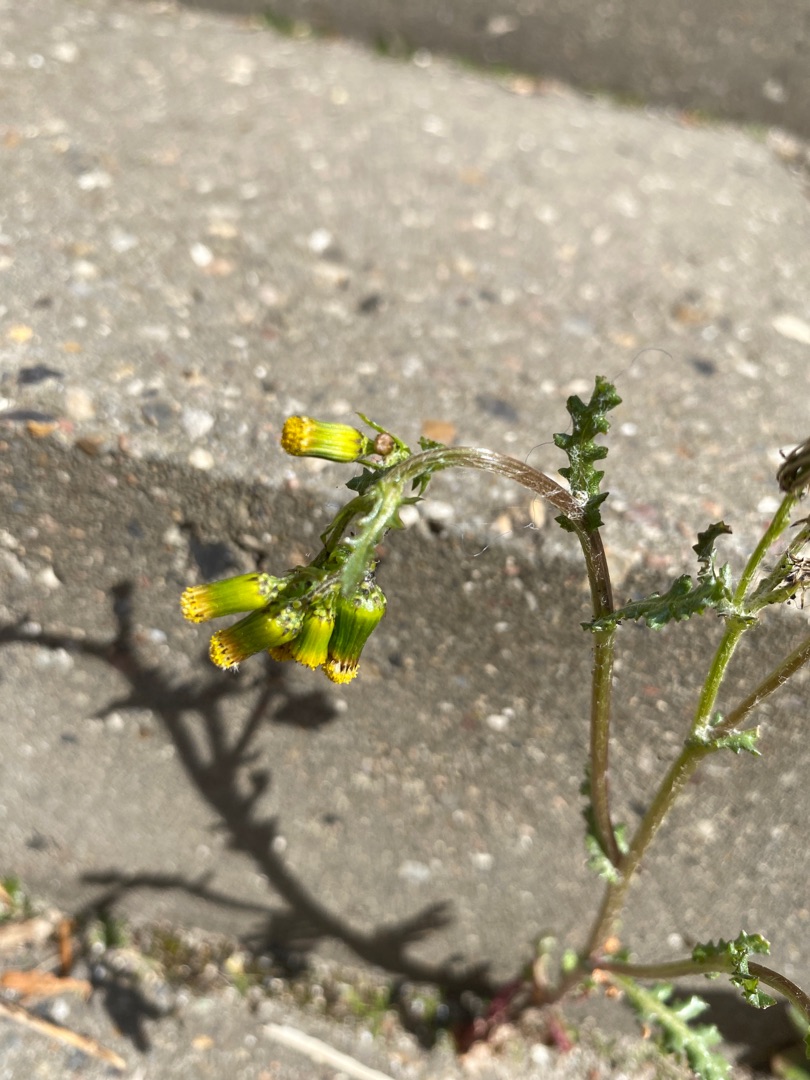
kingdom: Plantae
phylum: Tracheophyta
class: Magnoliopsida
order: Asterales
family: Asteraceae
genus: Senecio
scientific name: Senecio vulgaris
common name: Almindelig brandbæger
